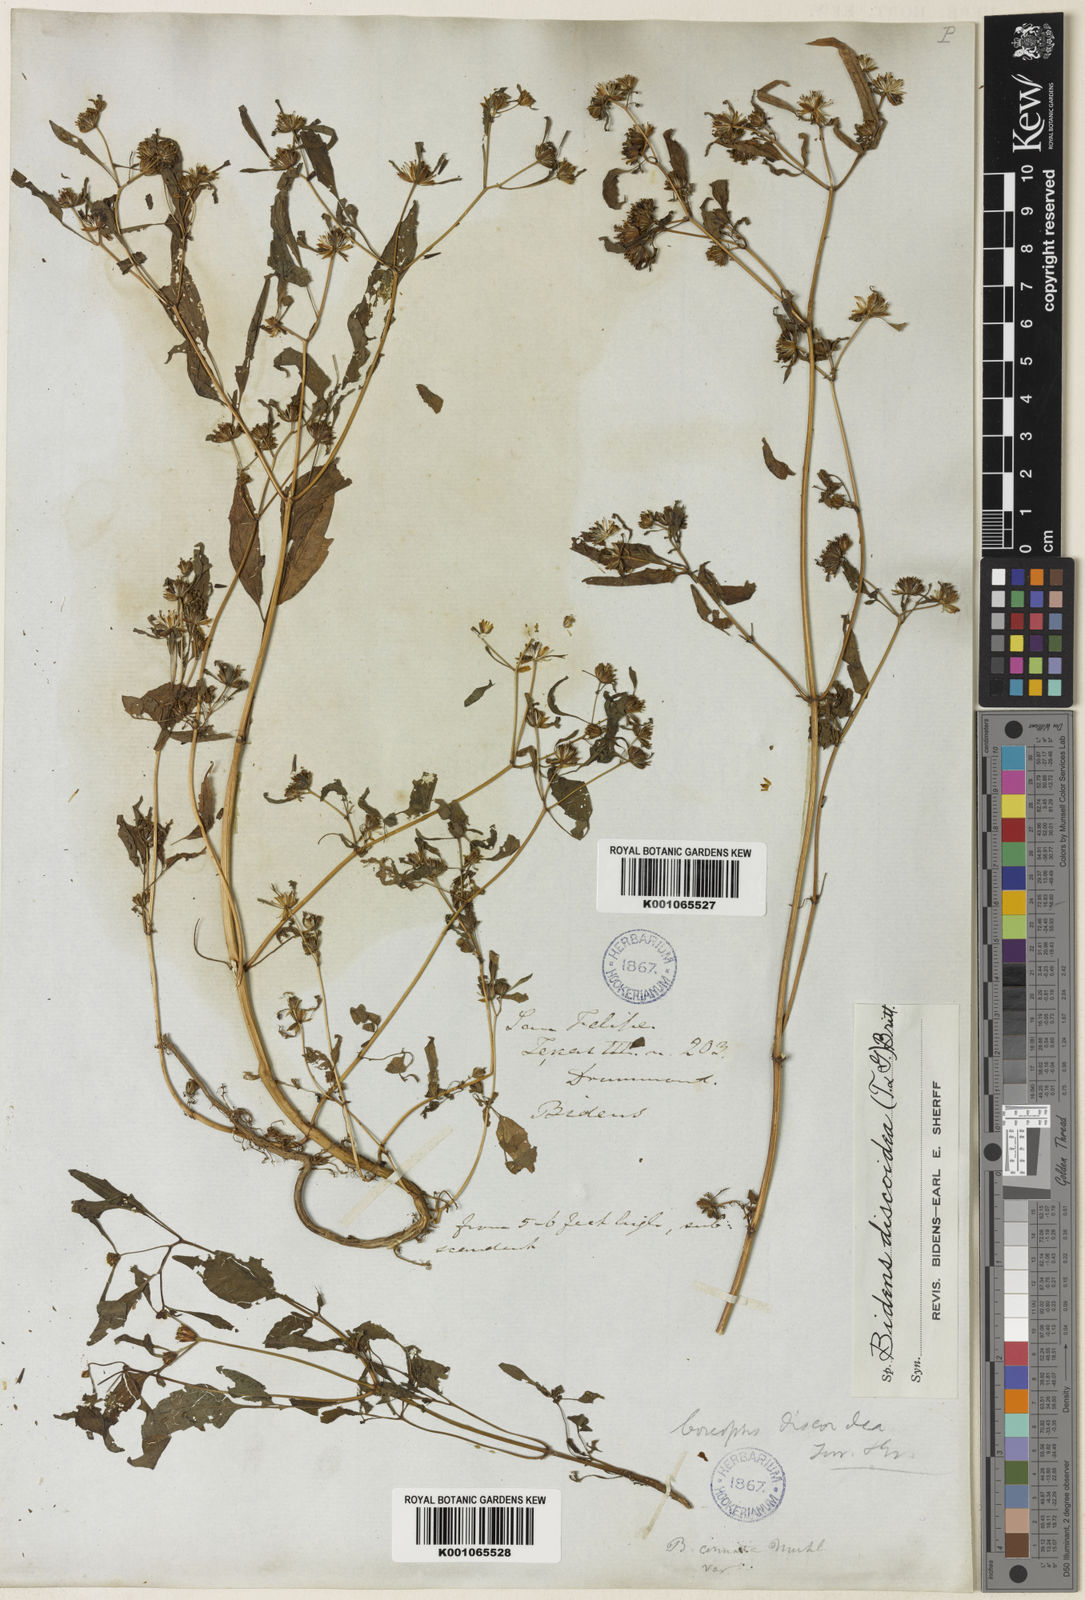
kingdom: Plantae
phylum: Tracheophyta
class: Magnoliopsida
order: Asterales
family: Asteraceae
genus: Bidens
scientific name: Bidens discoidea
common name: Discoide beggarticks
